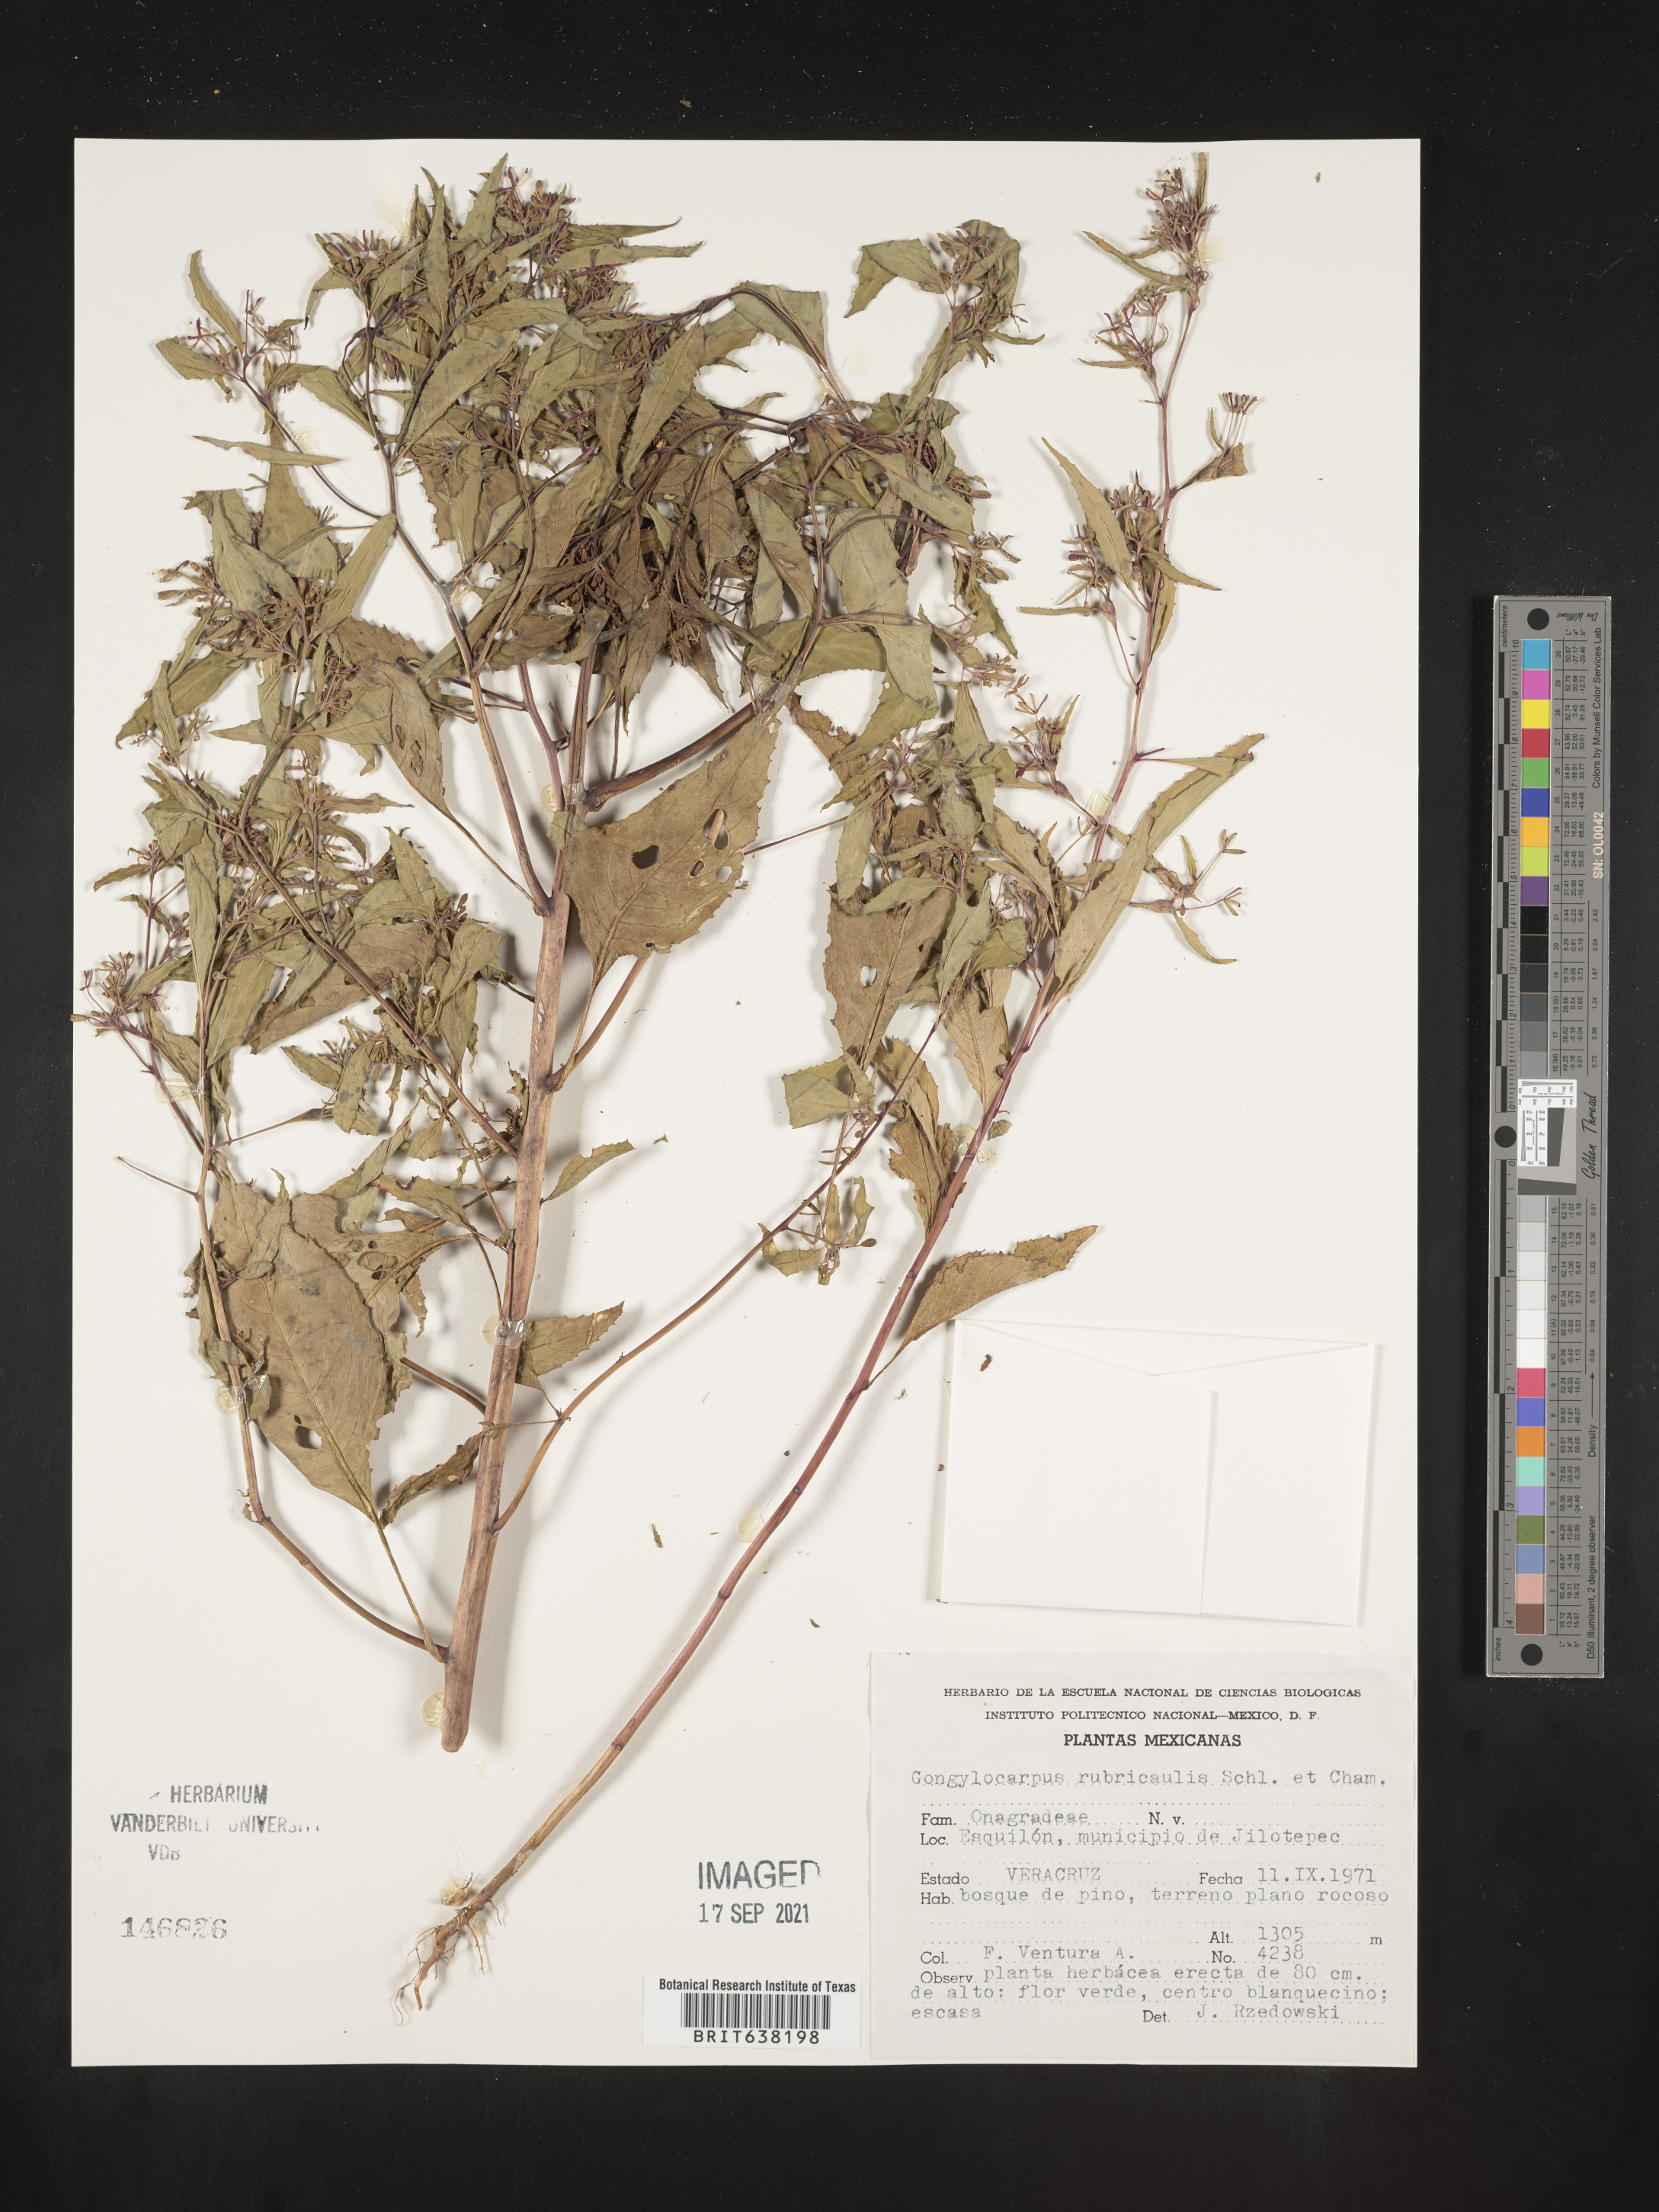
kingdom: Plantae
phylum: Tracheophyta
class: Magnoliopsida
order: Myrtales
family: Onagraceae
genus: Gongylocarpus
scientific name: Gongylocarpus
